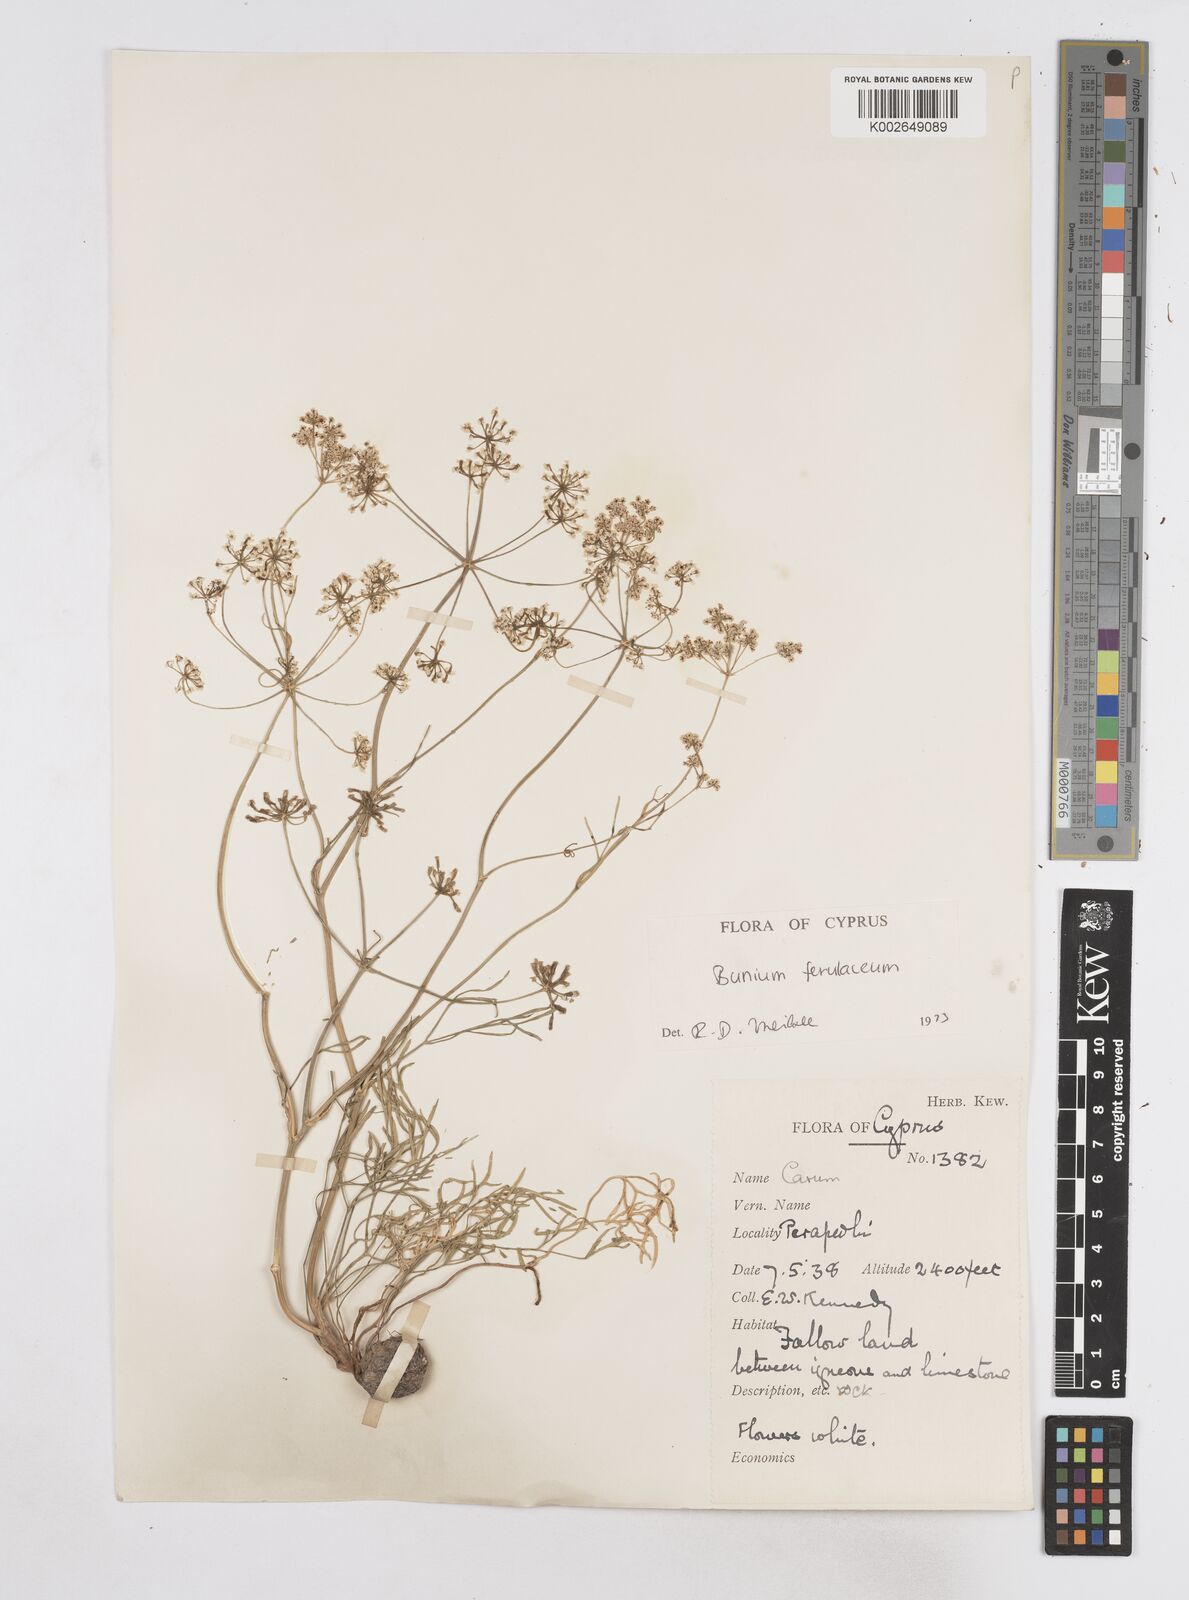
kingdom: Plantae
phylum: Tracheophyta
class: Magnoliopsida
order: Apiales
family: Apiaceae
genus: Bunium
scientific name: Bunium ferulaceum
